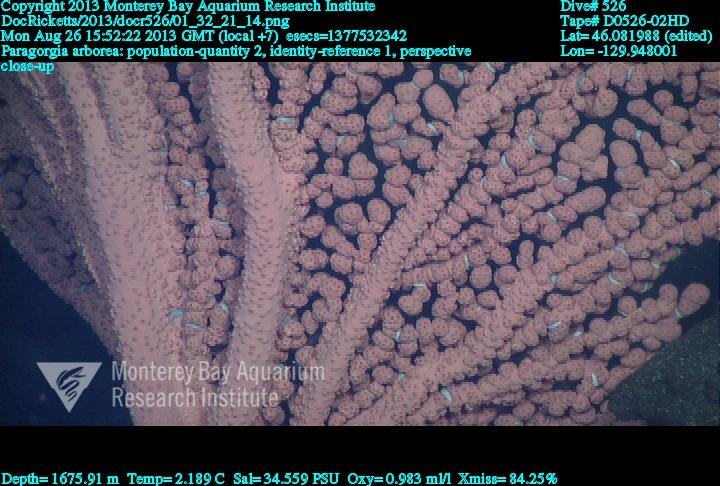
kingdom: Animalia
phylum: Cnidaria
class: Anthozoa
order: Scleralcyonacea
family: Coralliidae
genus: Paragorgia
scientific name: Paragorgia arborea
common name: Bubble gum coral
